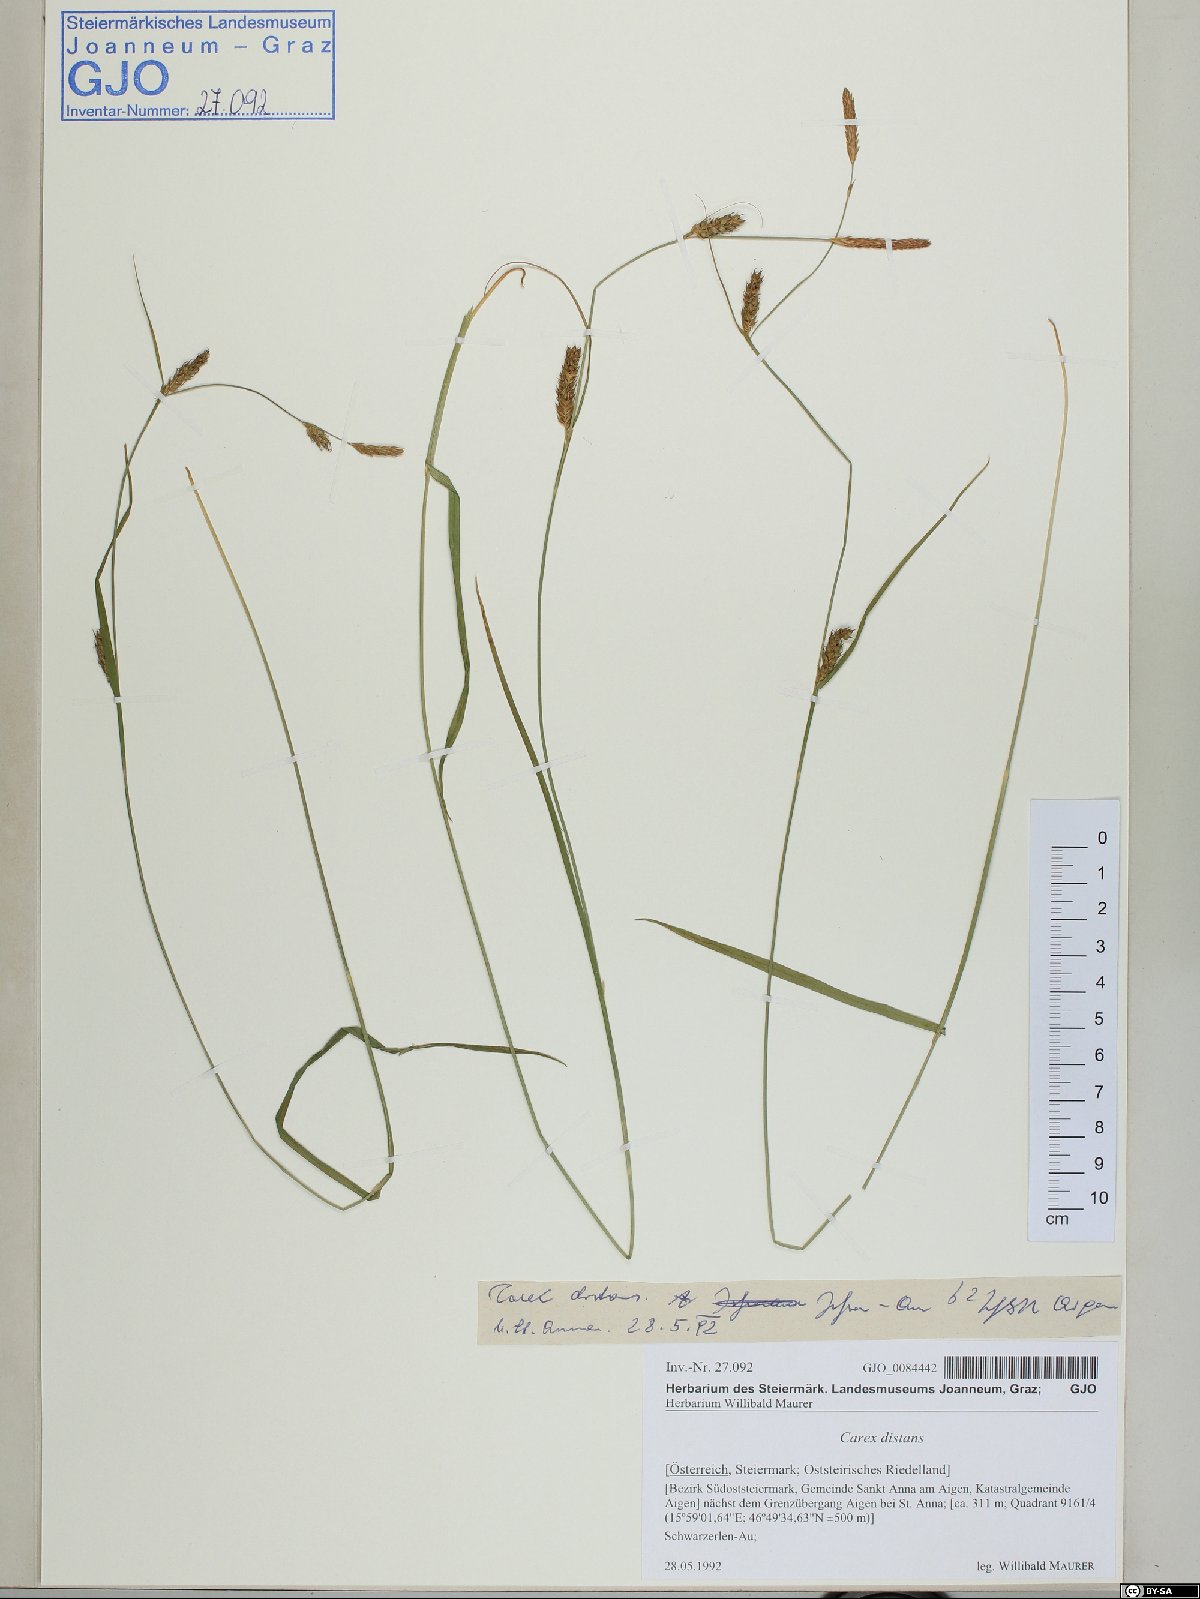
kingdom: Plantae
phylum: Tracheophyta
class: Liliopsida
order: Poales
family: Cyperaceae
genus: Carex
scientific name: Carex distans
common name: Distant sedge
